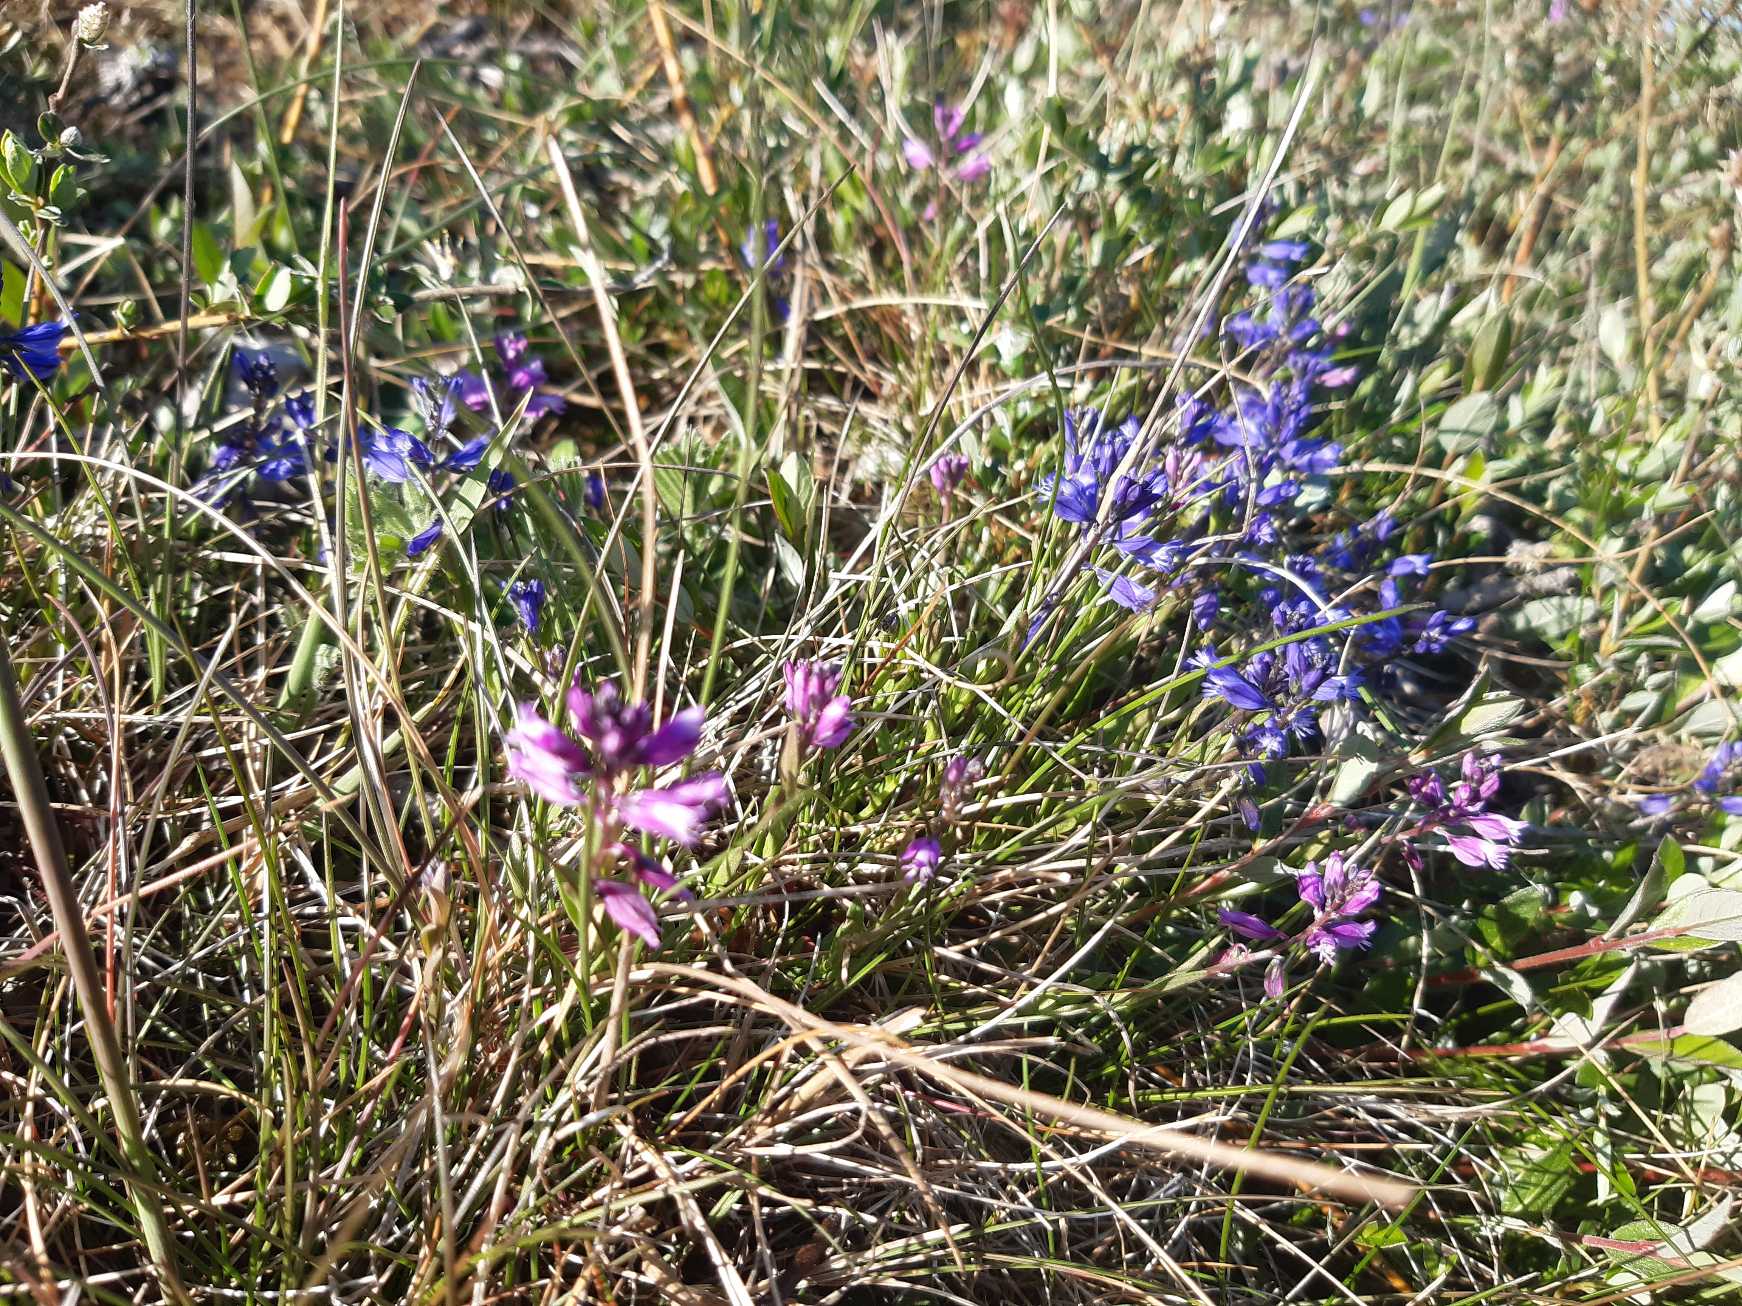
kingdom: Plantae
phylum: Tracheophyta
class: Magnoliopsida
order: Fabales
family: Polygalaceae
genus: Polygala
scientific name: Polygala vulgaris
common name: Almindelig mælkeurt
